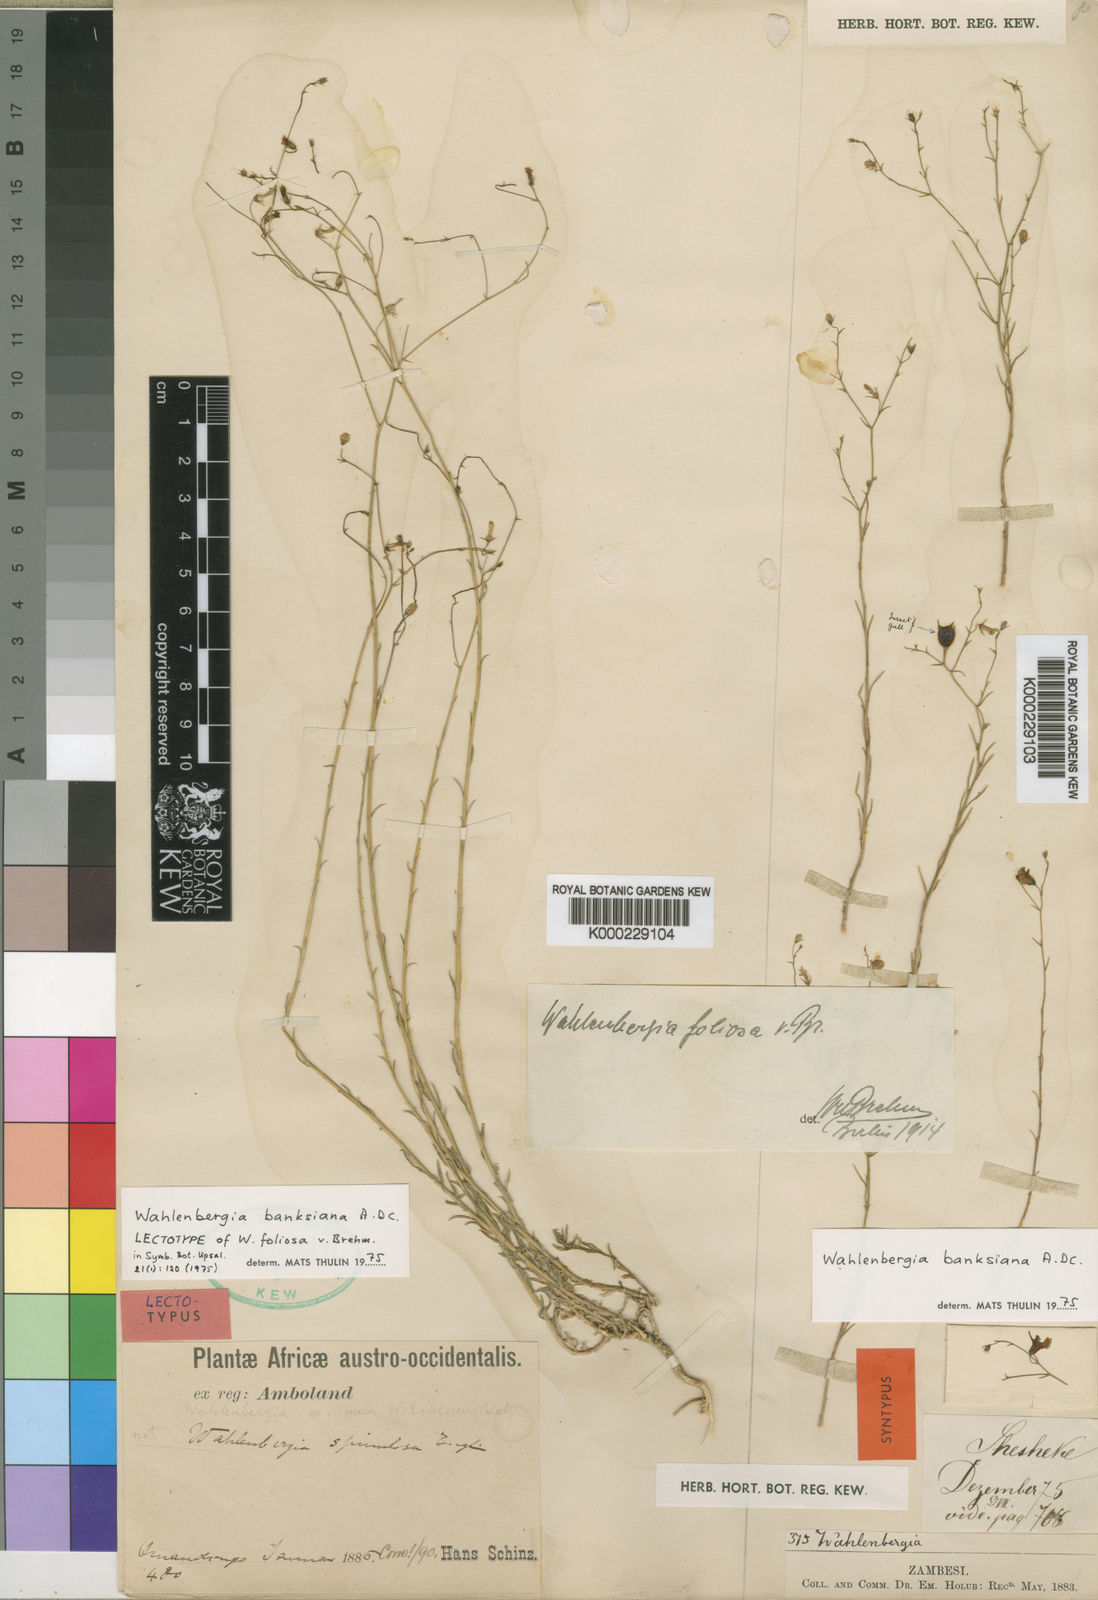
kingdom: Plantae
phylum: Tracheophyta
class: Magnoliopsida
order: Asterales
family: Campanulaceae
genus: Wahlenbergia
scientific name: Wahlenbergia banksiana
